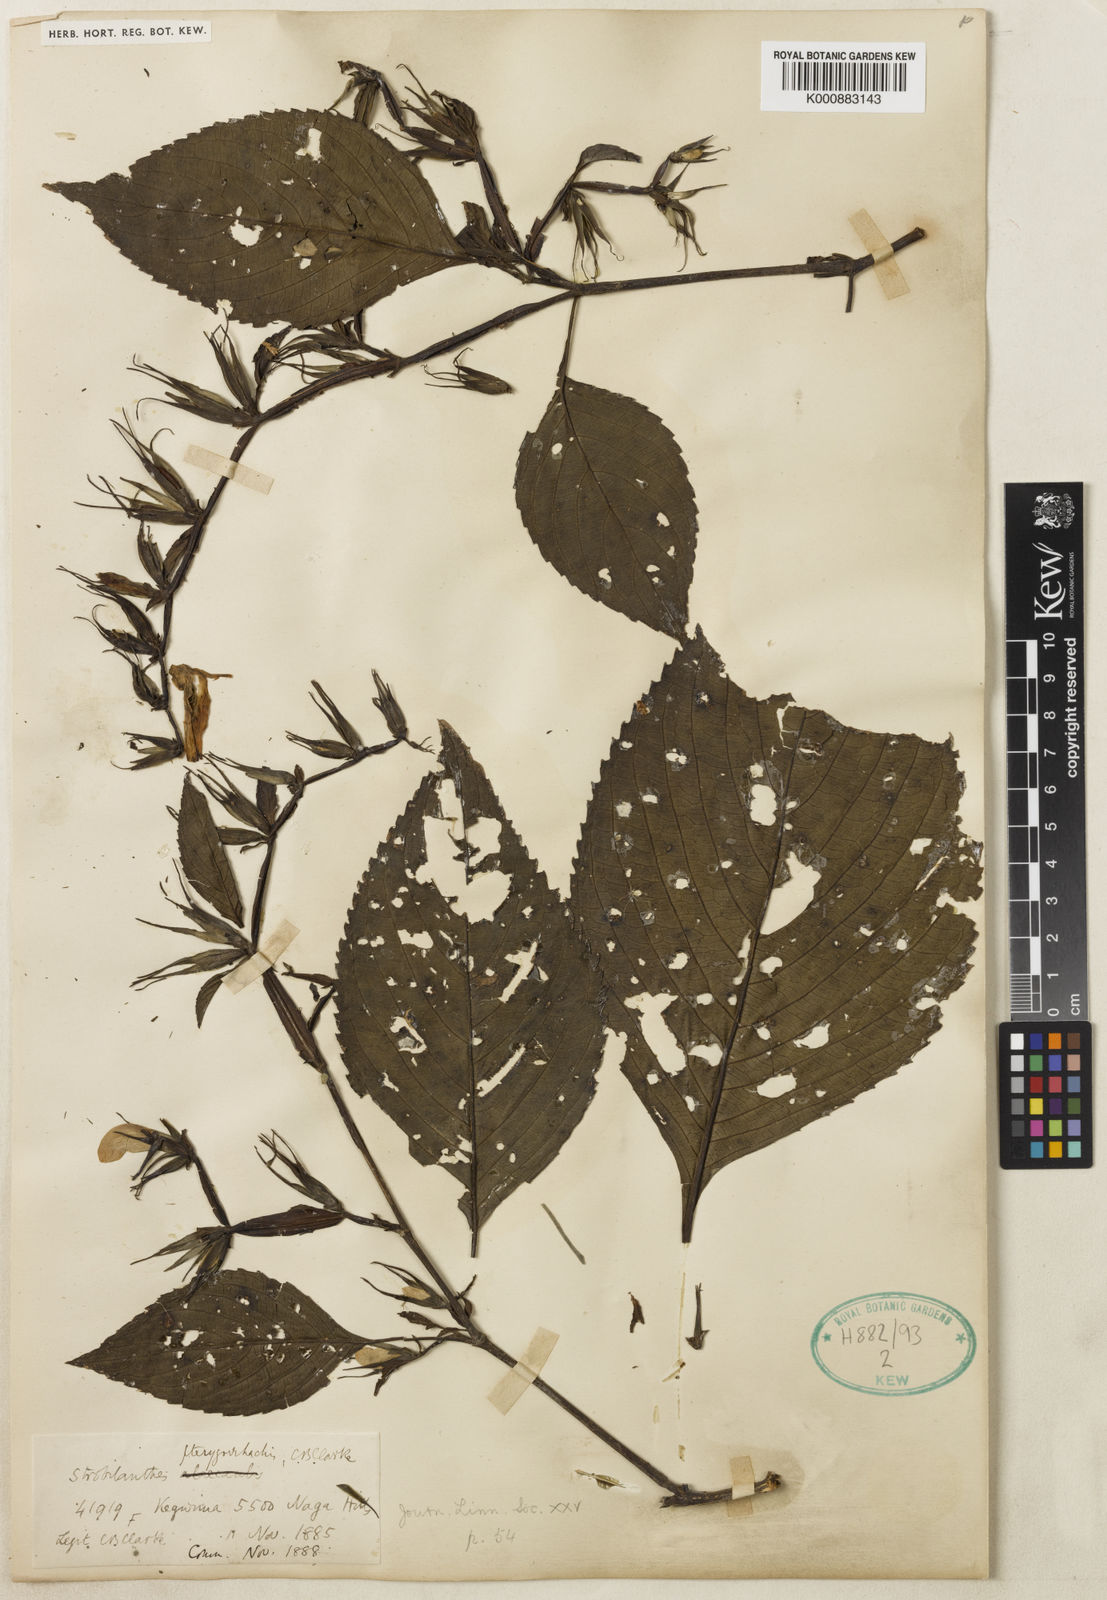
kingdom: Plantae
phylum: Tracheophyta
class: Magnoliopsida
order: Lamiales
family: Acanthaceae
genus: Strobilanthes
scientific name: Strobilanthes pterygorrhachis
